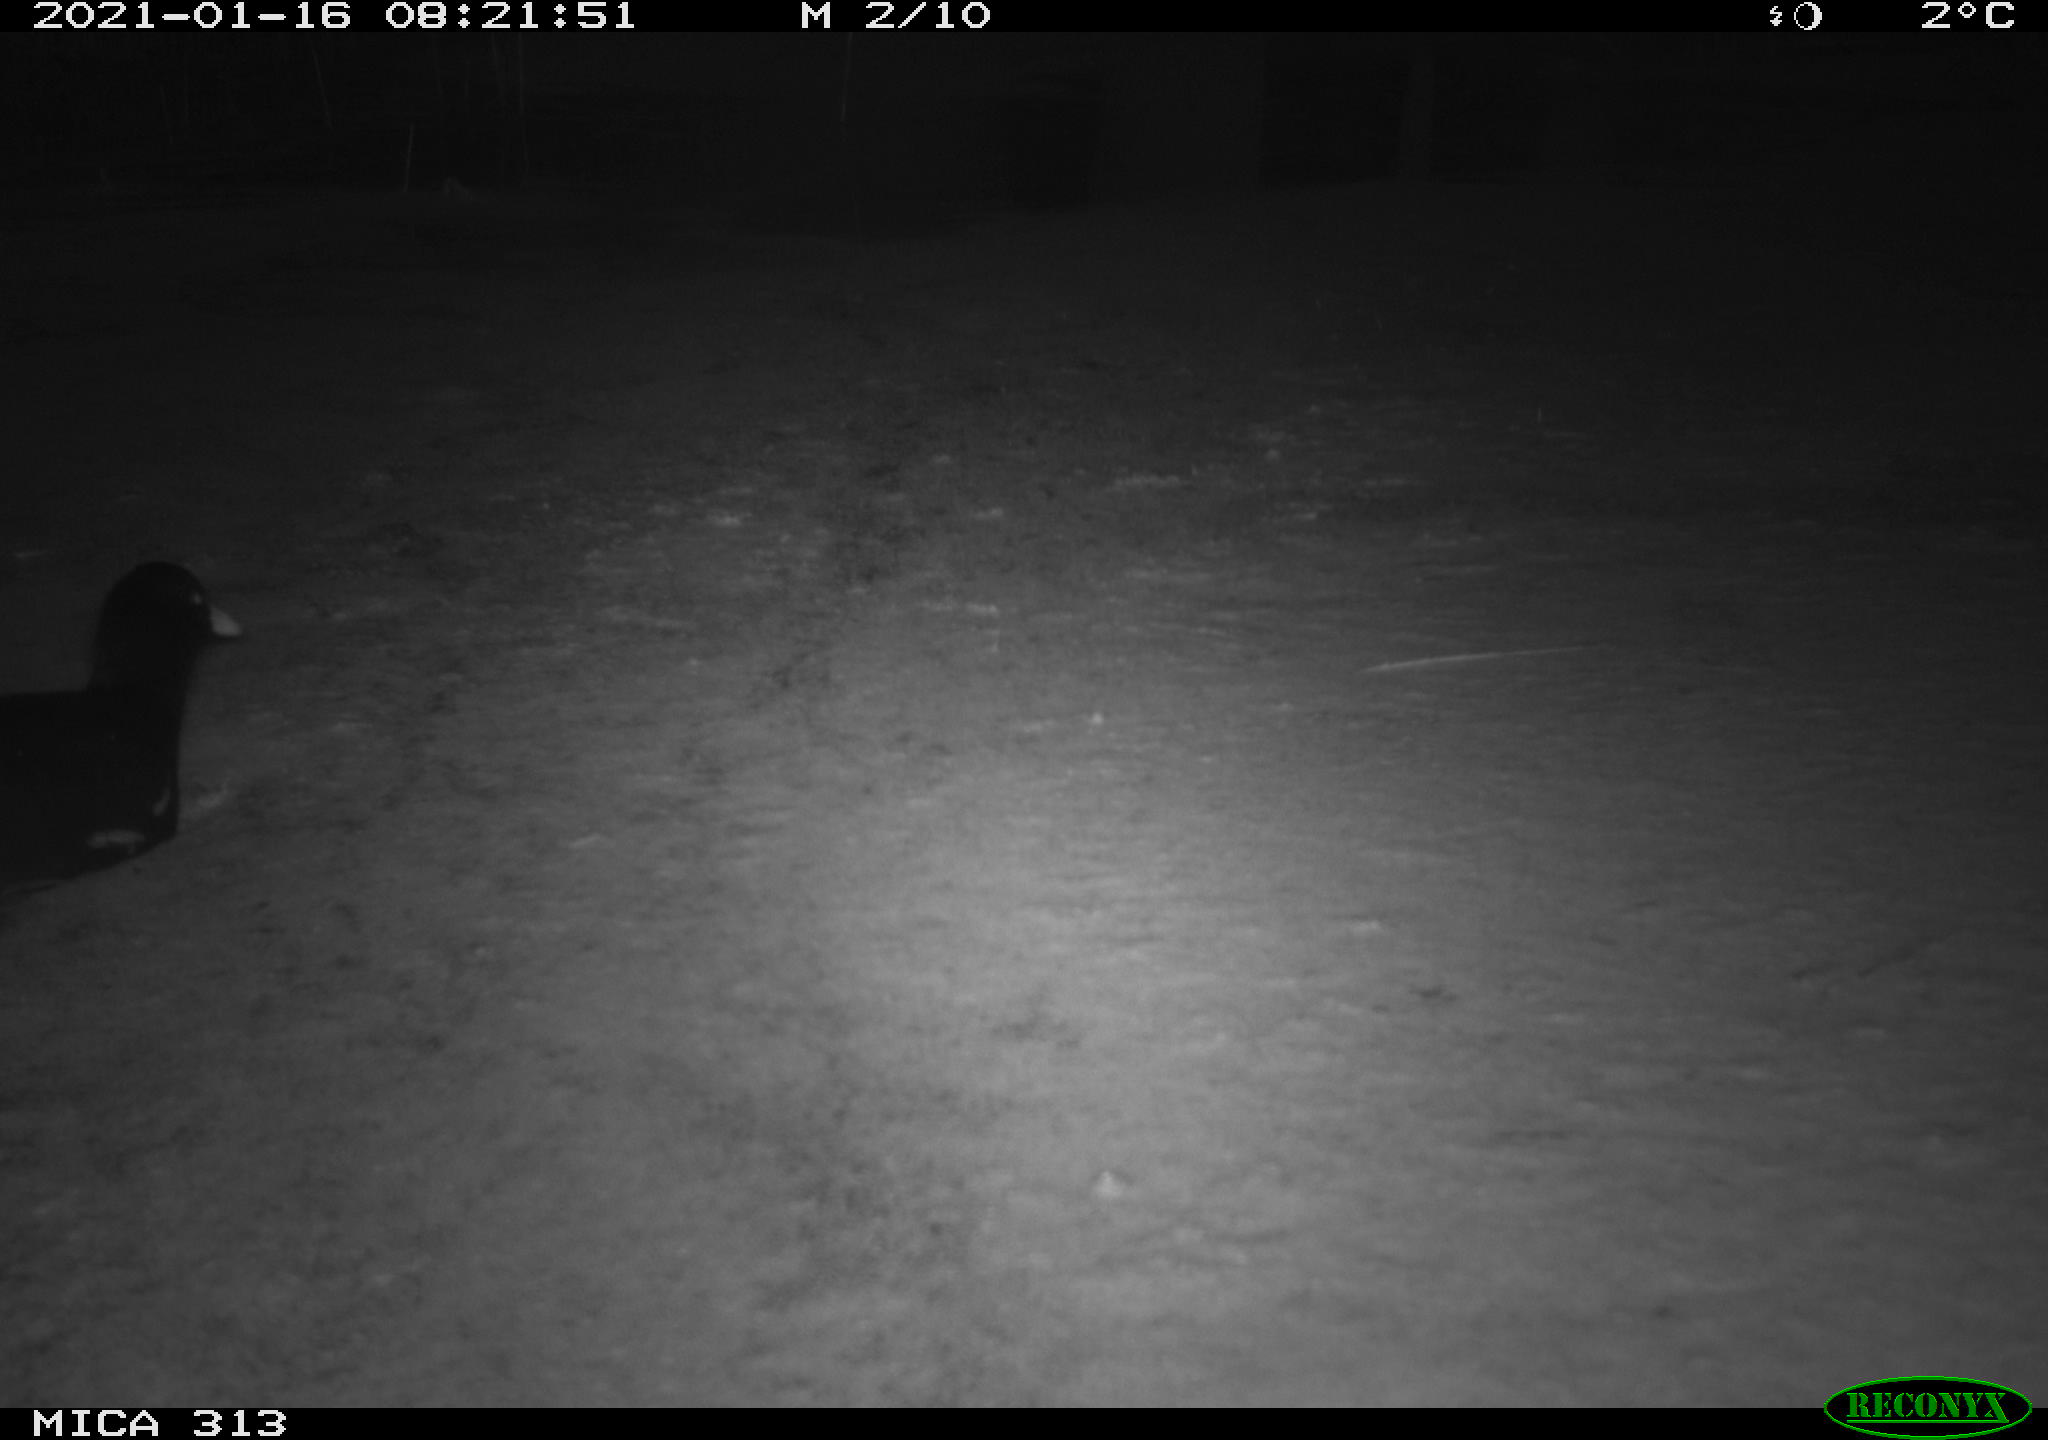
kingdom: Animalia
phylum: Chordata
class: Aves
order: Gruiformes
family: Rallidae
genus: Fulica
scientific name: Fulica atra
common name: Eurasian coot
